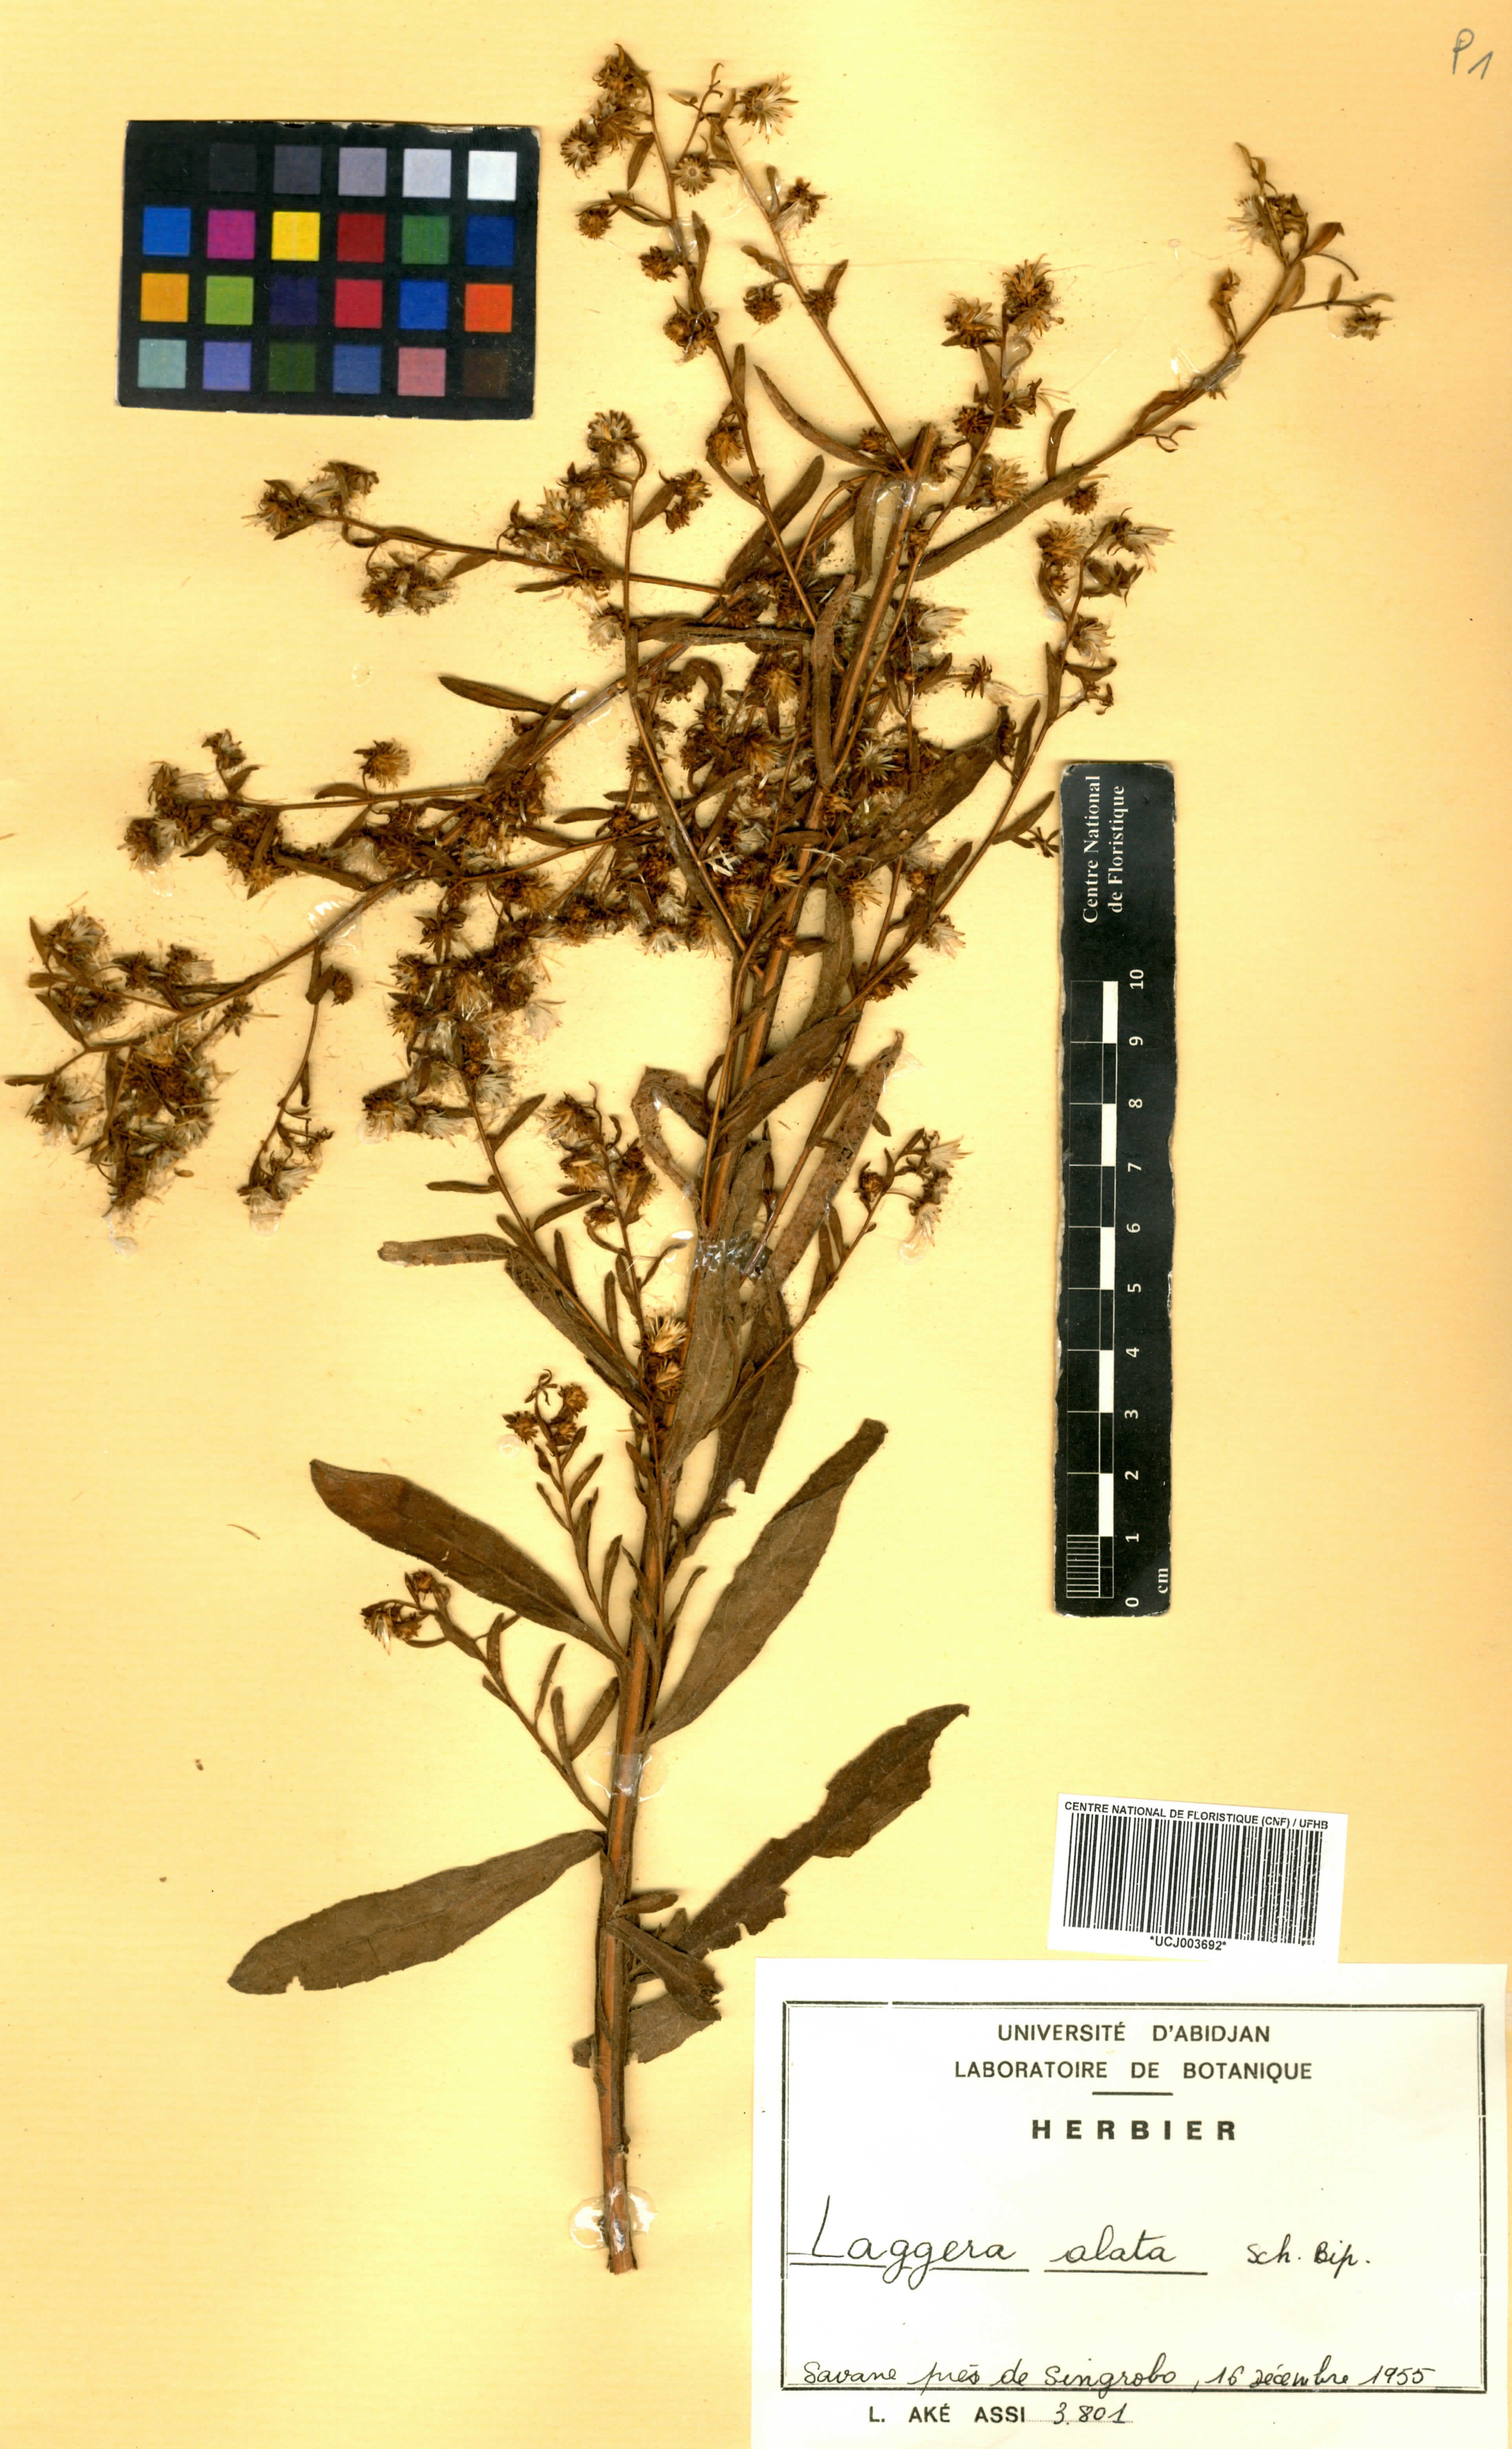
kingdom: Plantae
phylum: Tracheophyta
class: Magnoliopsida
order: Asterales
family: Asteraceae
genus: Laggera
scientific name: Laggera alata
